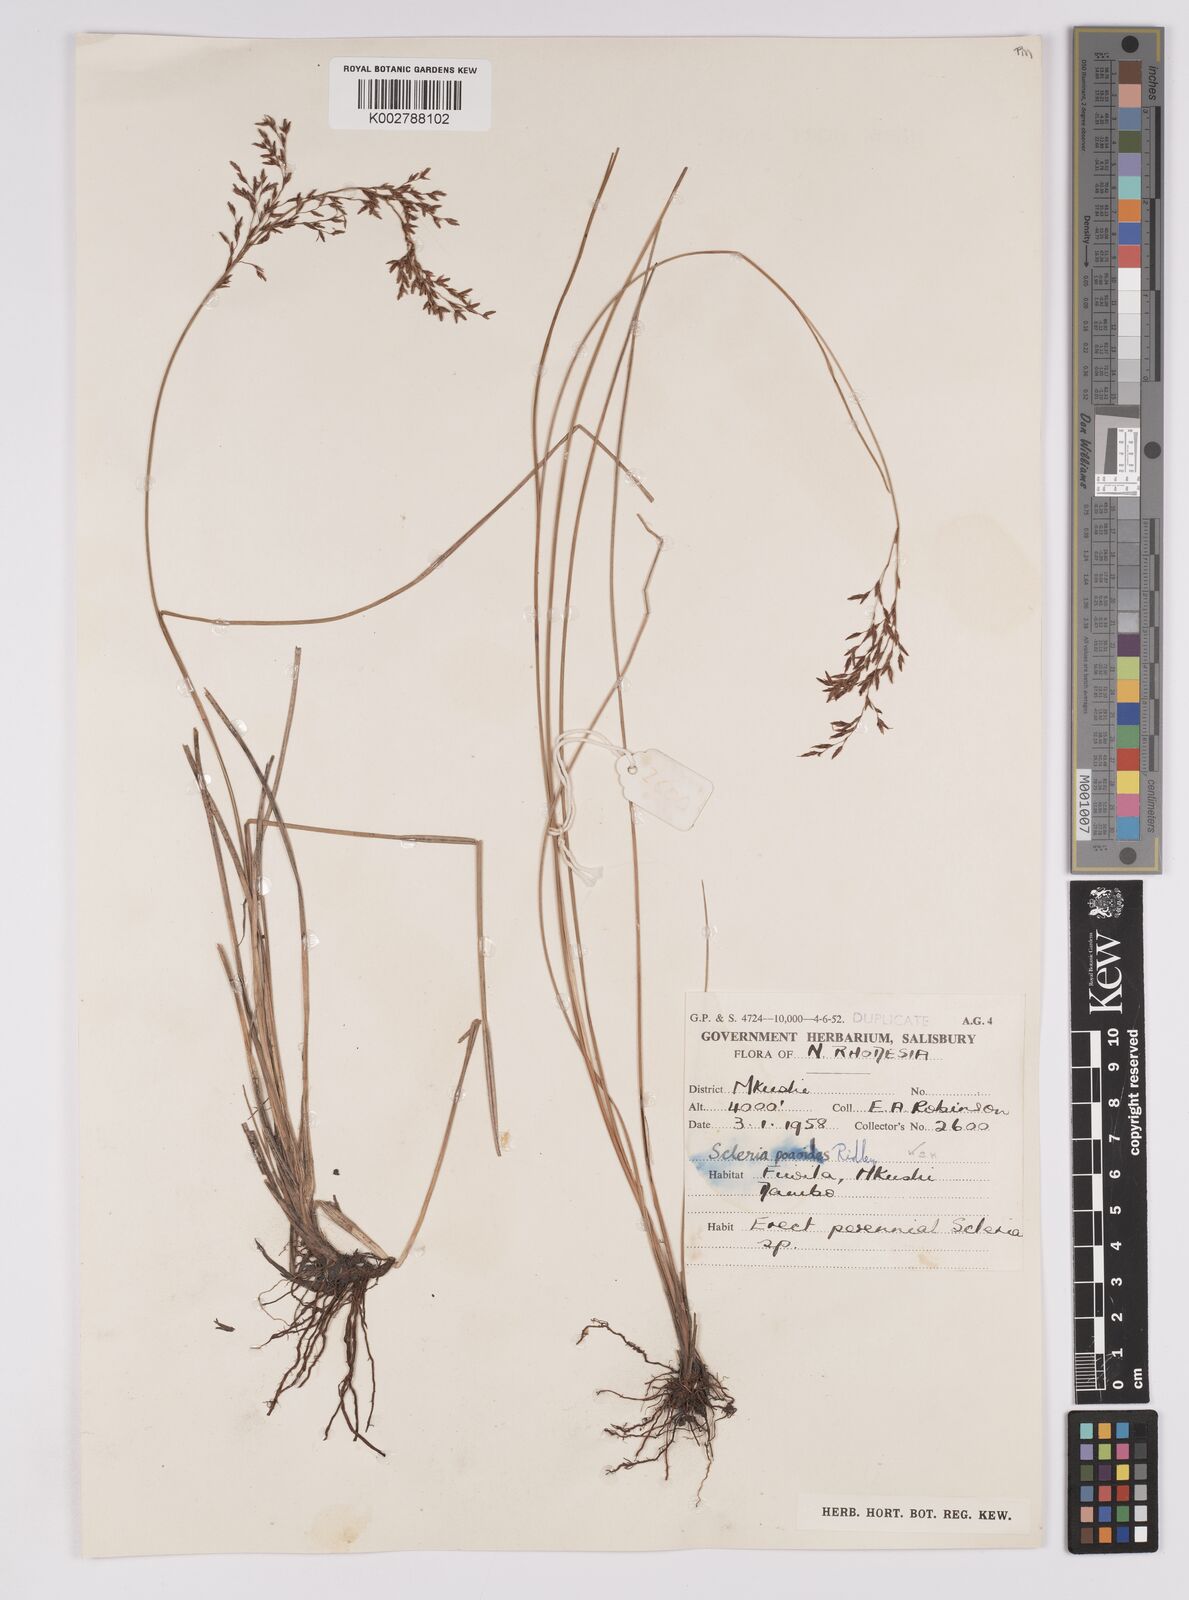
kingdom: Plantae
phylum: Tracheophyta
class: Liliopsida
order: Poales
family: Cyperaceae
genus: Scleria
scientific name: Scleria pooides
